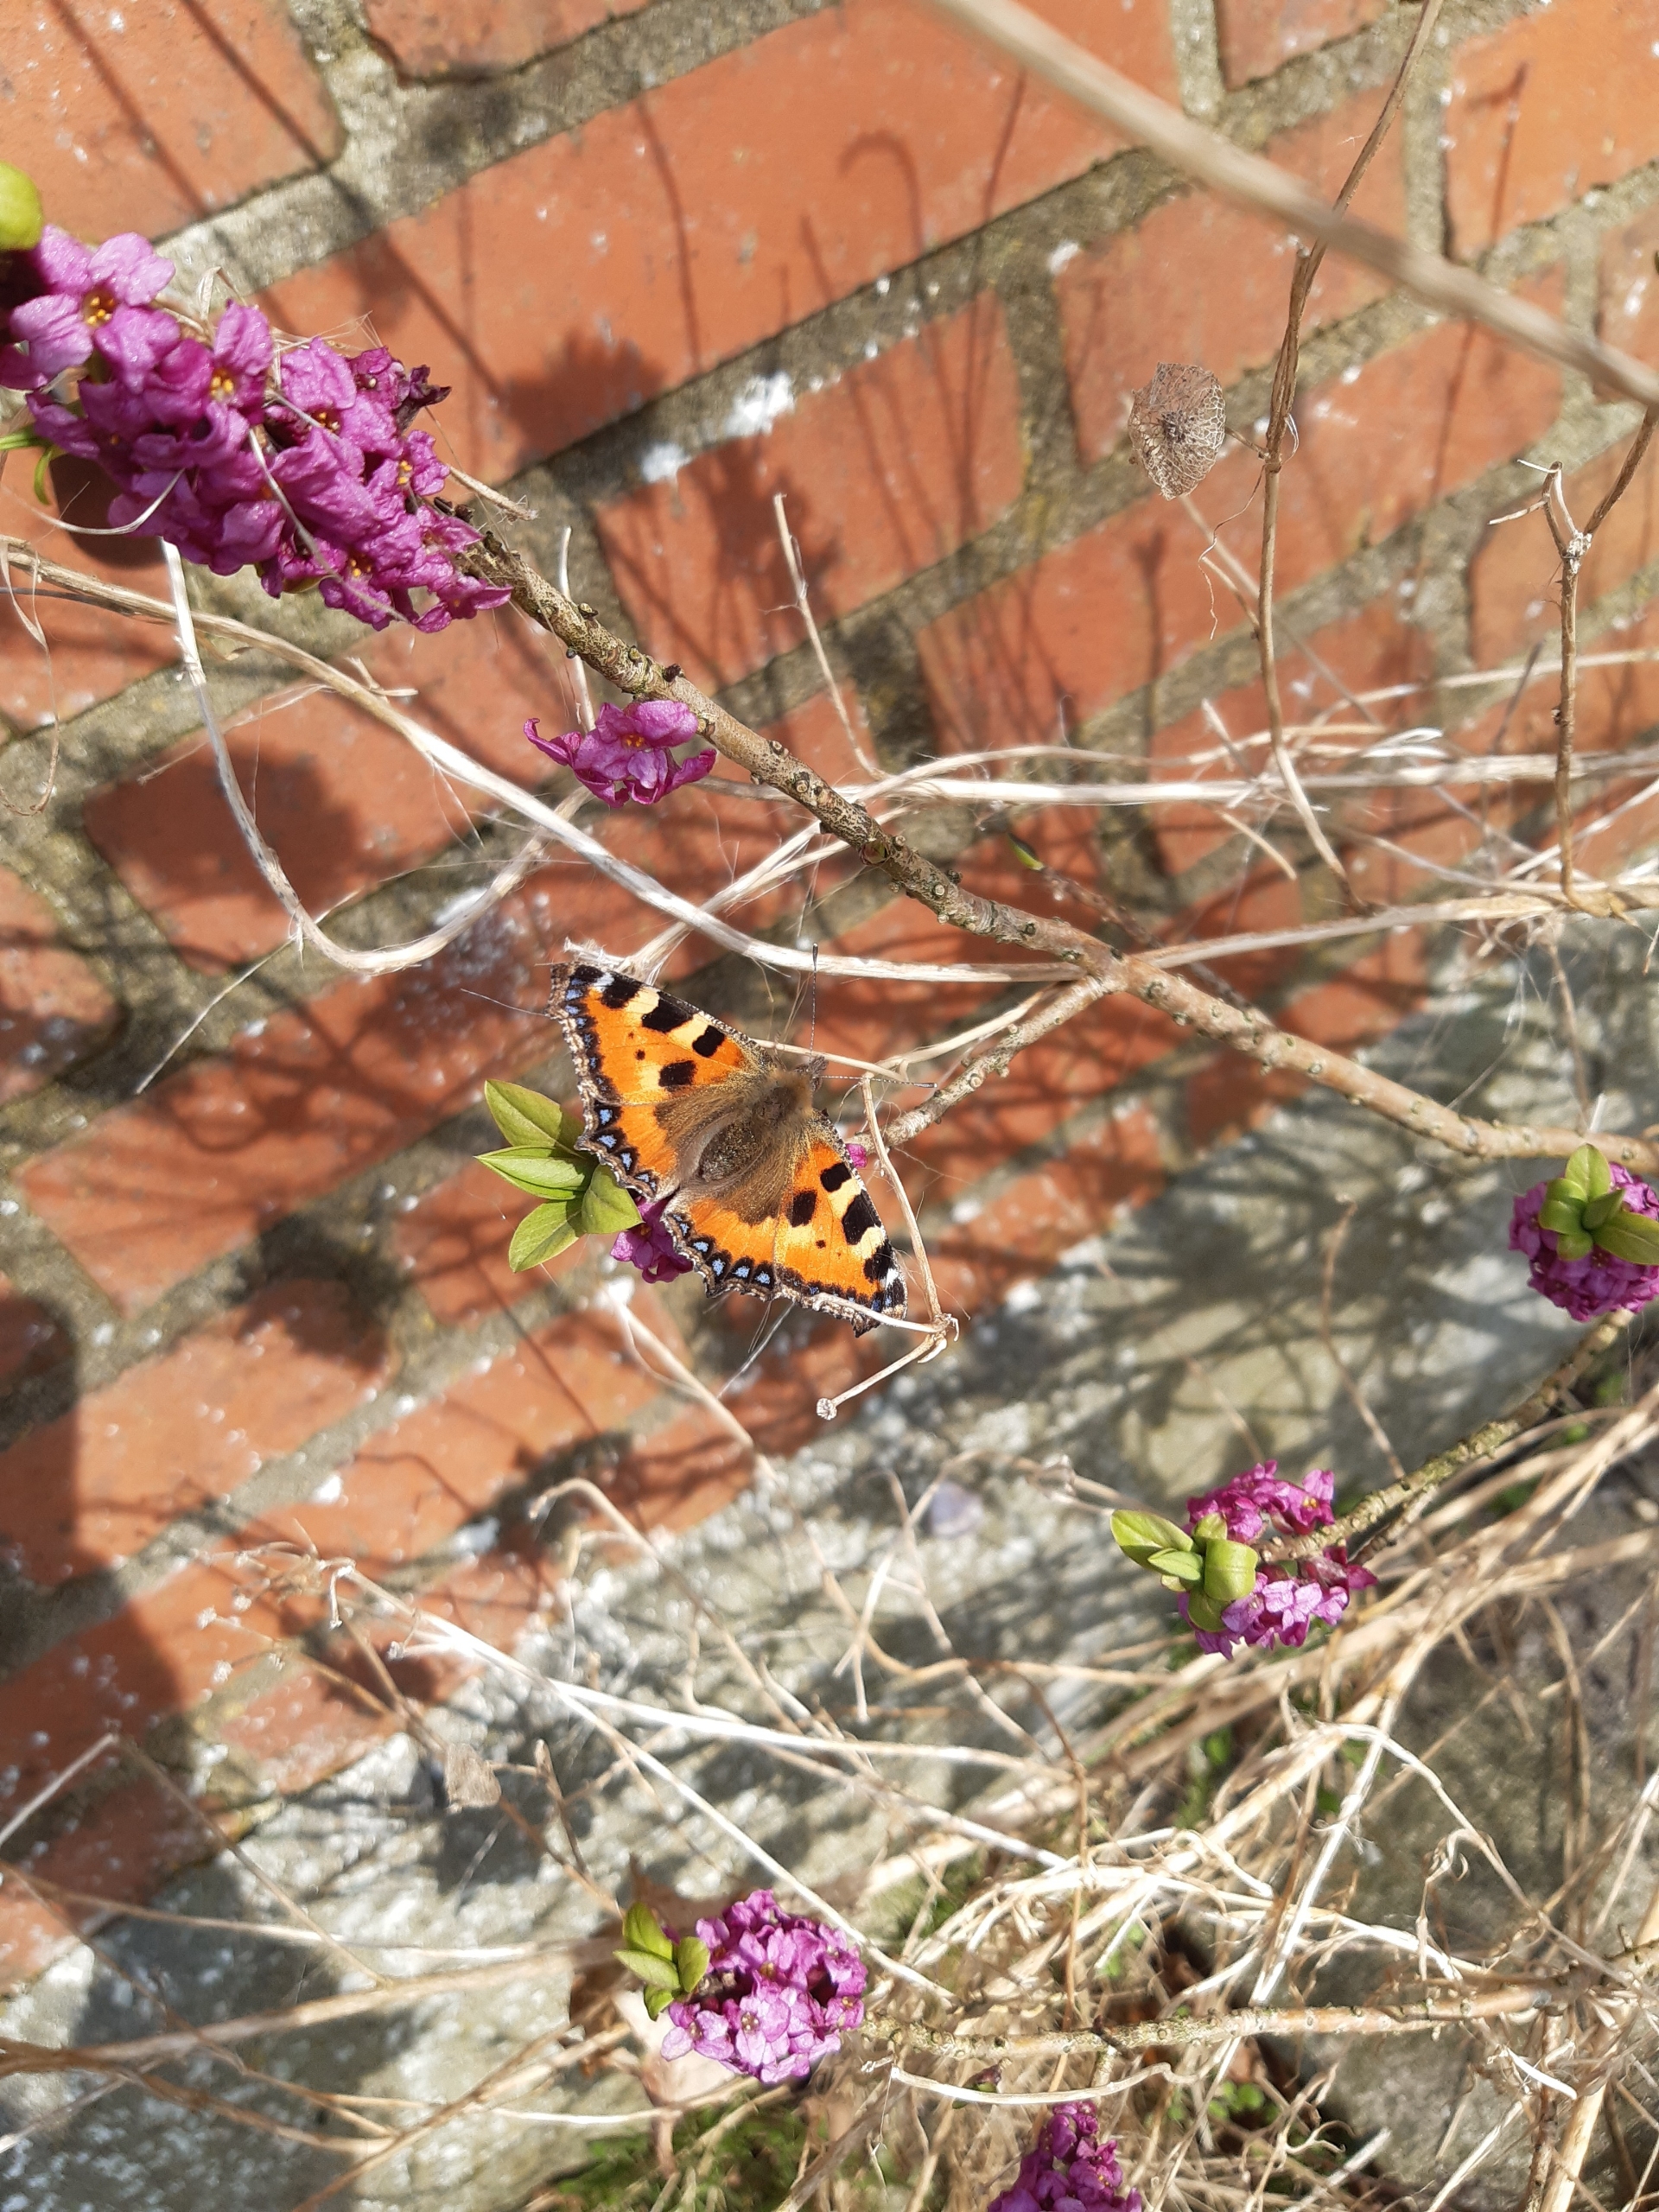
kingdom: Animalia
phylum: Arthropoda
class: Insecta
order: Lepidoptera
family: Nymphalidae
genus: Aglais
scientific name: Aglais urticae
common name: Nældens takvinge
